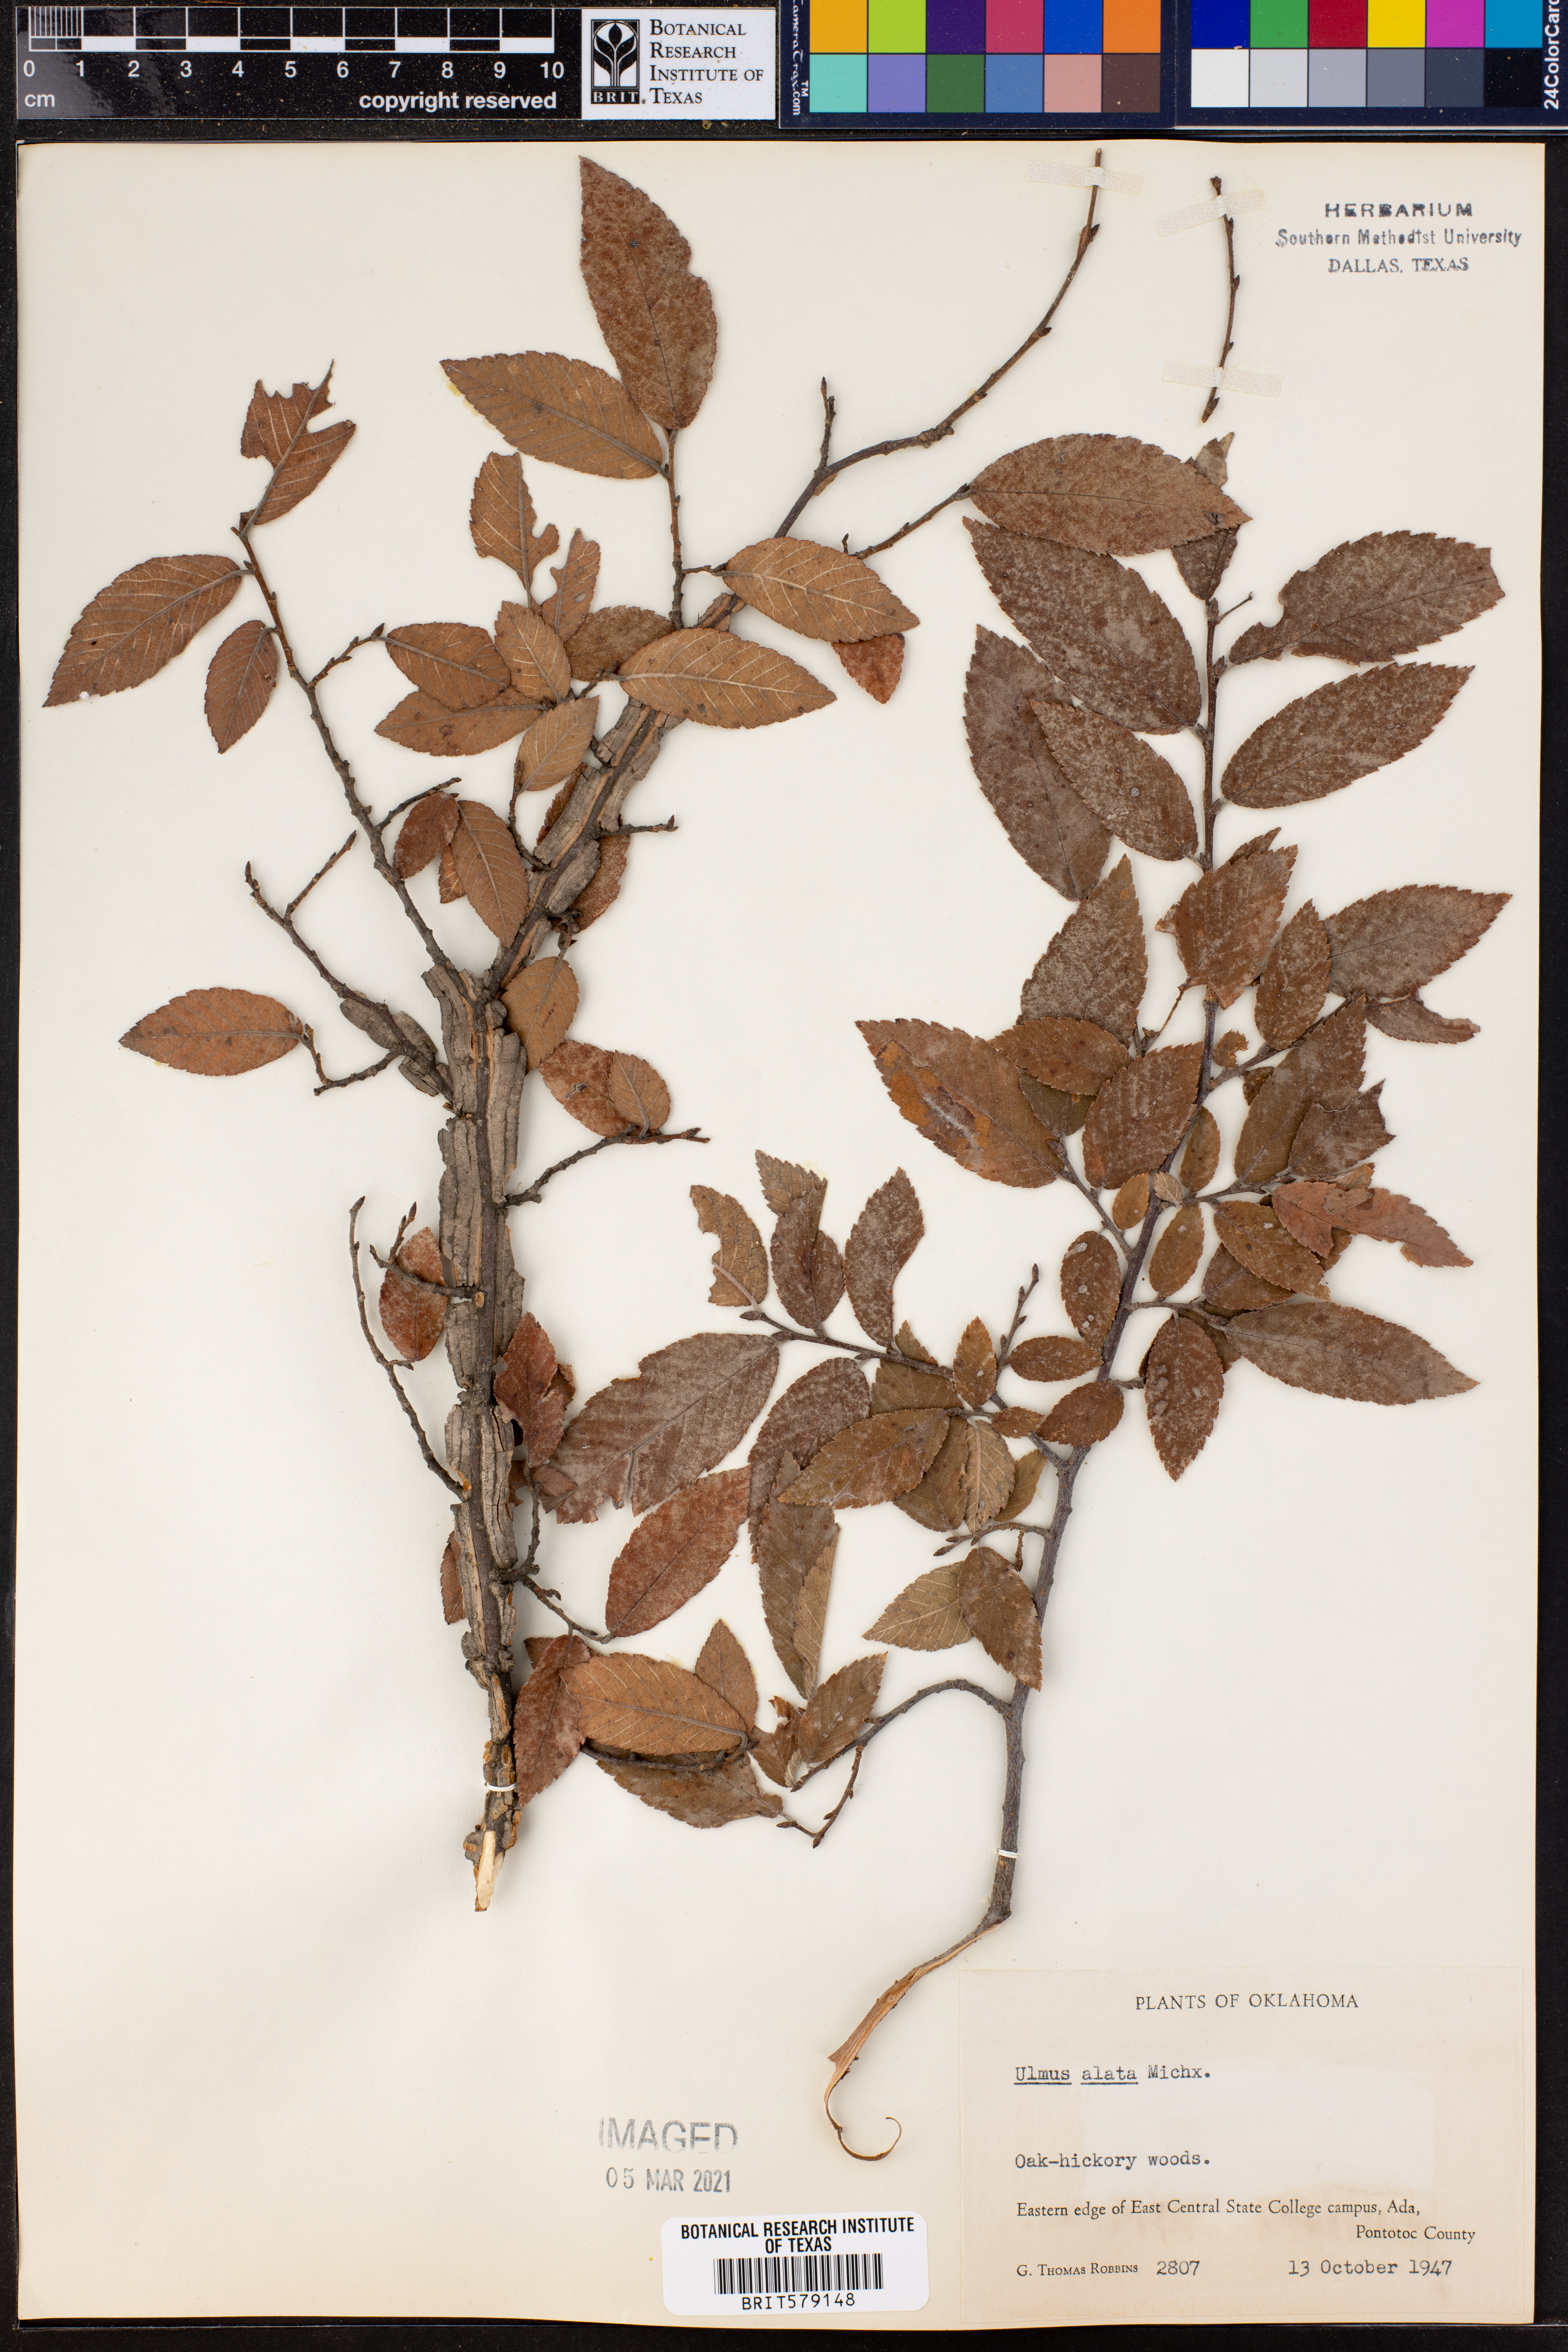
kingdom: Plantae
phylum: Tracheophyta
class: Magnoliopsida
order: Rosales
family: Ulmaceae
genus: Ulmus
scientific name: Ulmus alata
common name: Winged elm
